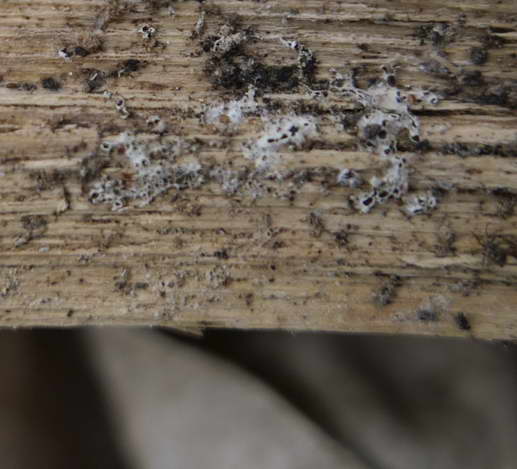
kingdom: Fungi
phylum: Ascomycota
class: Leotiomycetes
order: Helotiales
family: Arachnopezizaceae
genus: Eriopezia
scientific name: Eriopezia caesia
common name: ege-spindskive
